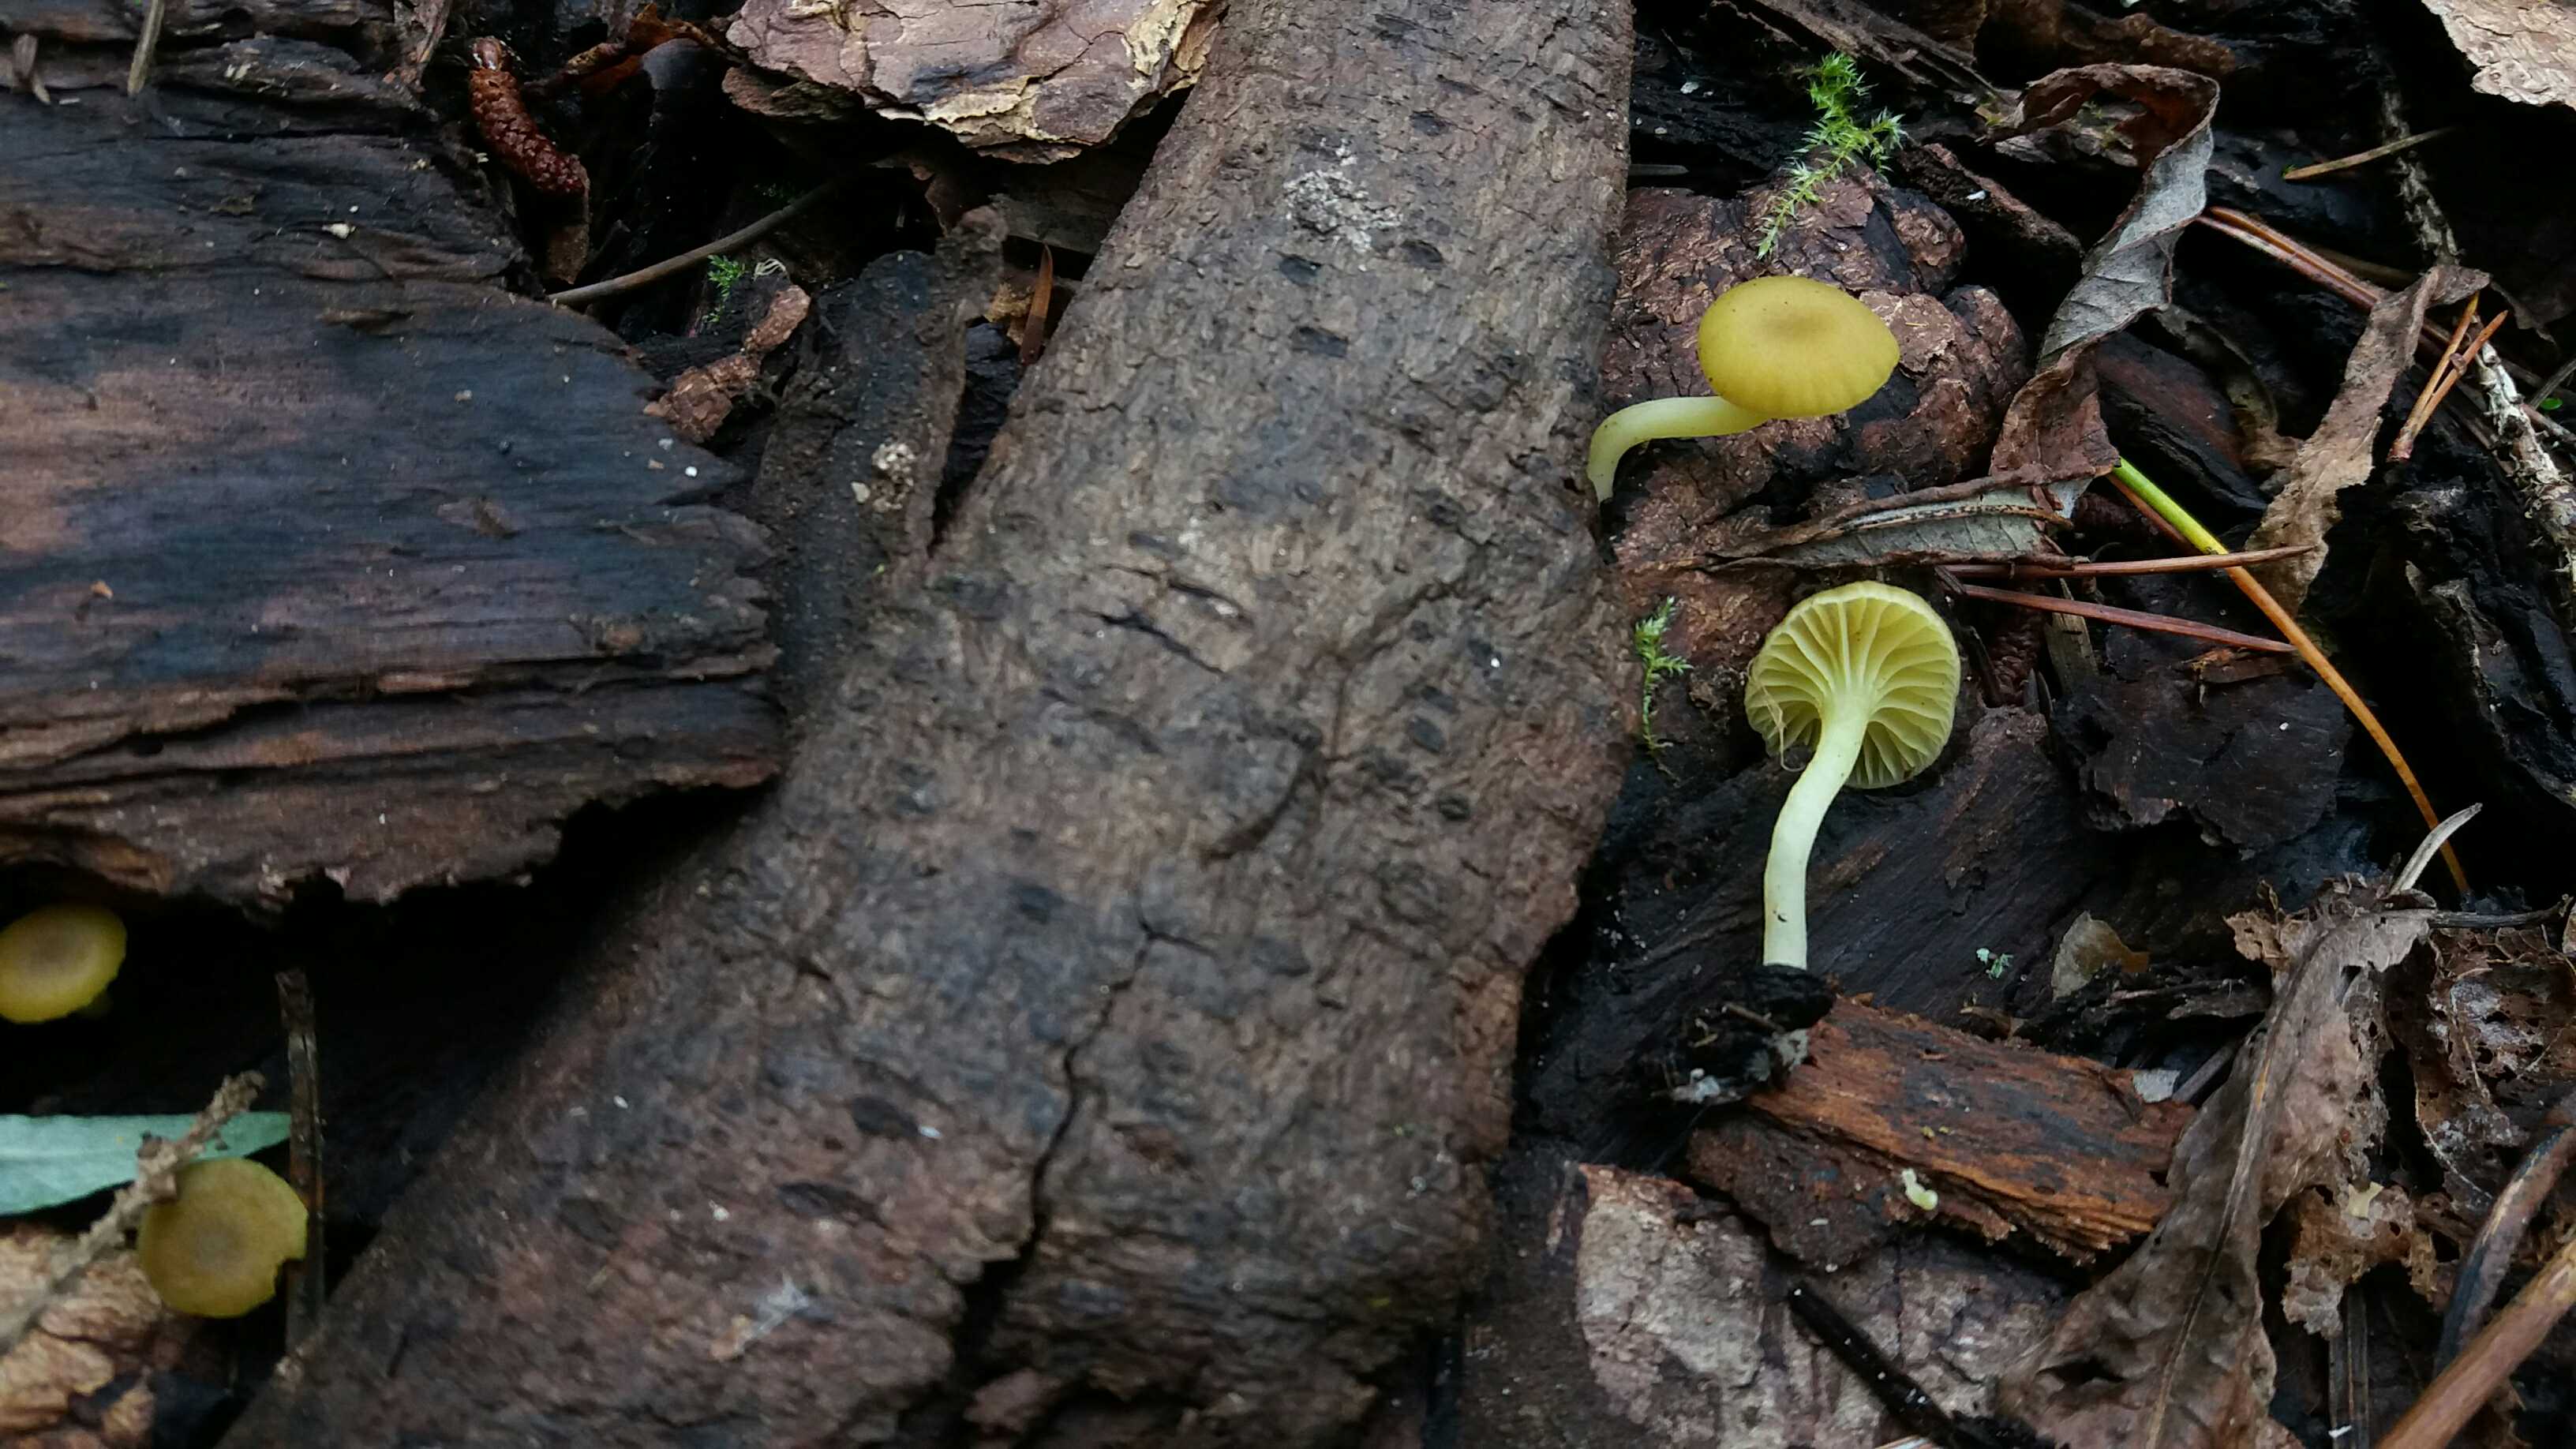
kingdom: Fungi
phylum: Basidiomycota
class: Agaricomycetes
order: Agaricales
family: Hygrophoraceae
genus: Chrysomphalina
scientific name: Chrysomphalina grossula
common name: stød-gyldenblad
